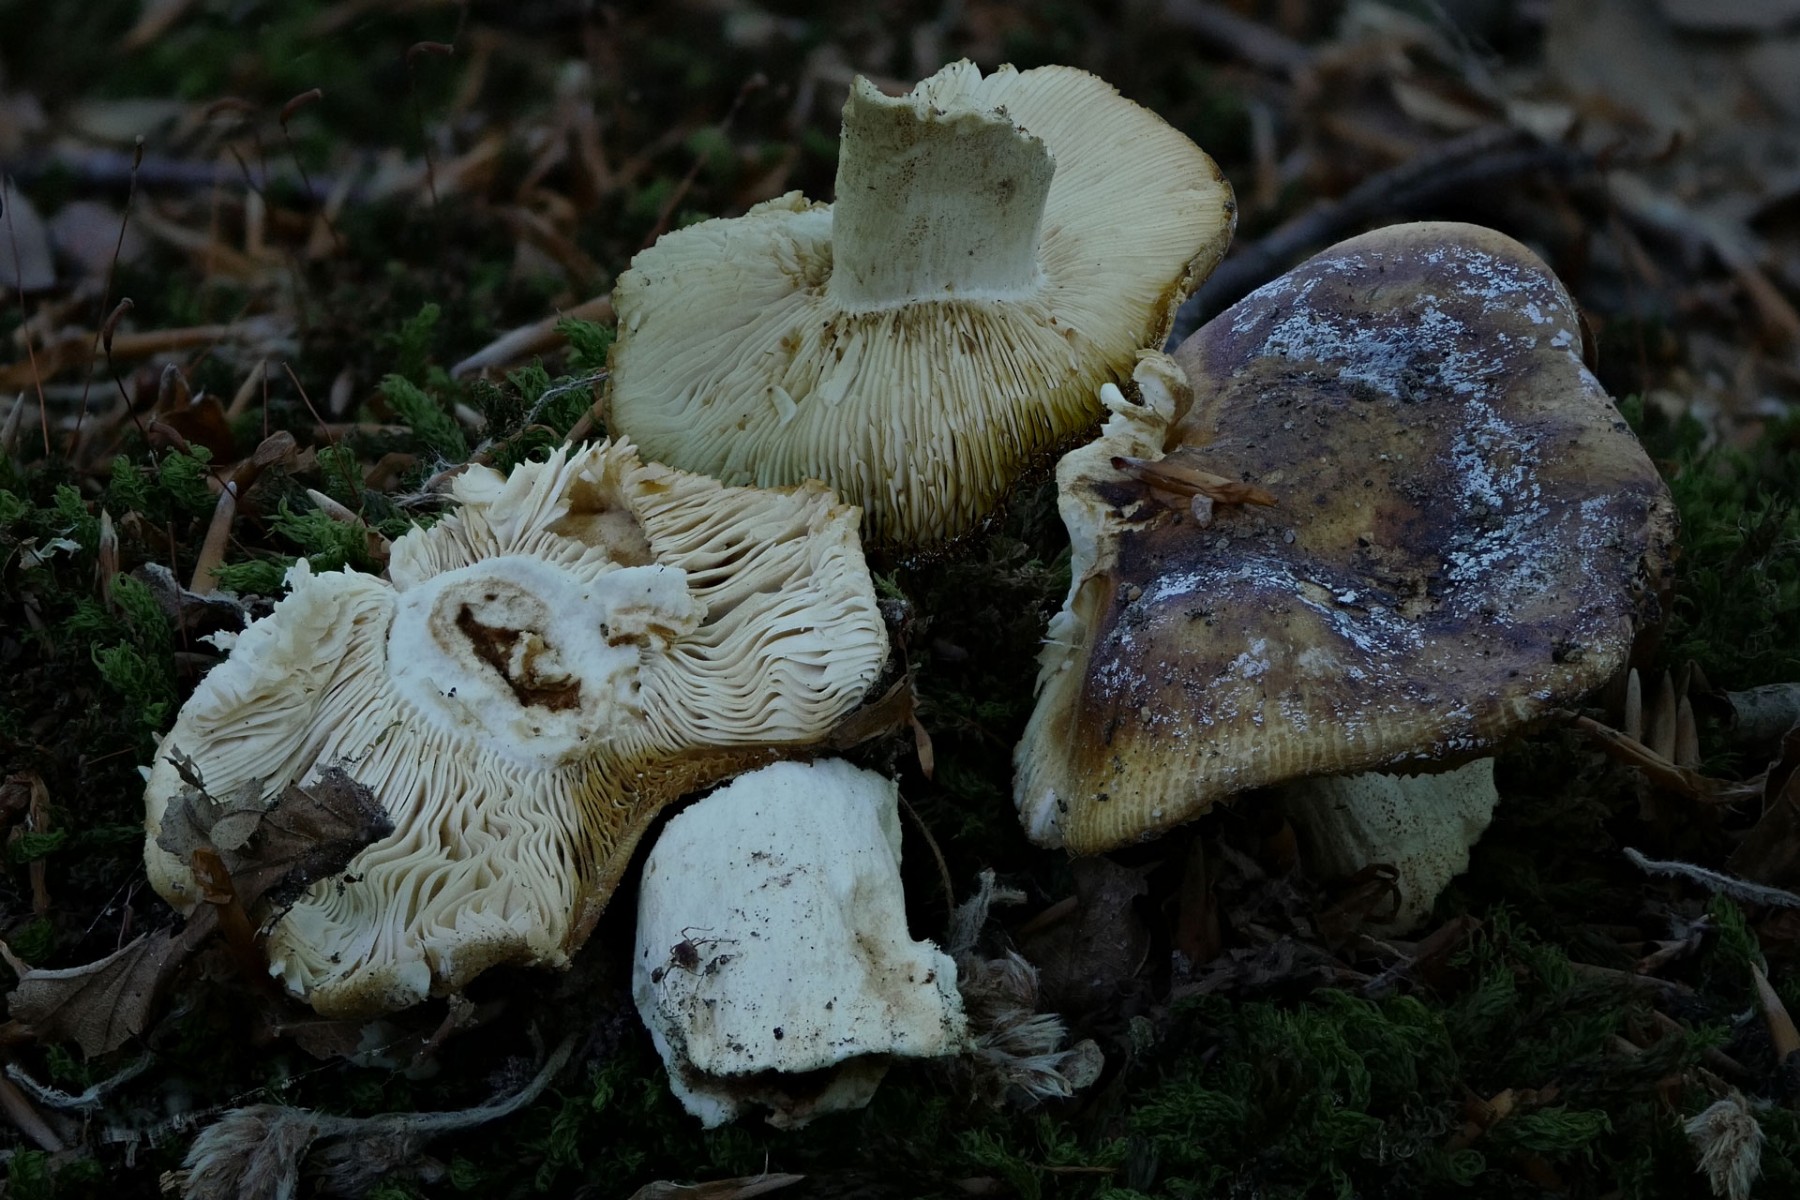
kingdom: Fungi
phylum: Basidiomycota
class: Agaricomycetes
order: Russulales
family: Russulaceae
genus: Russula
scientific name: Russula grata
